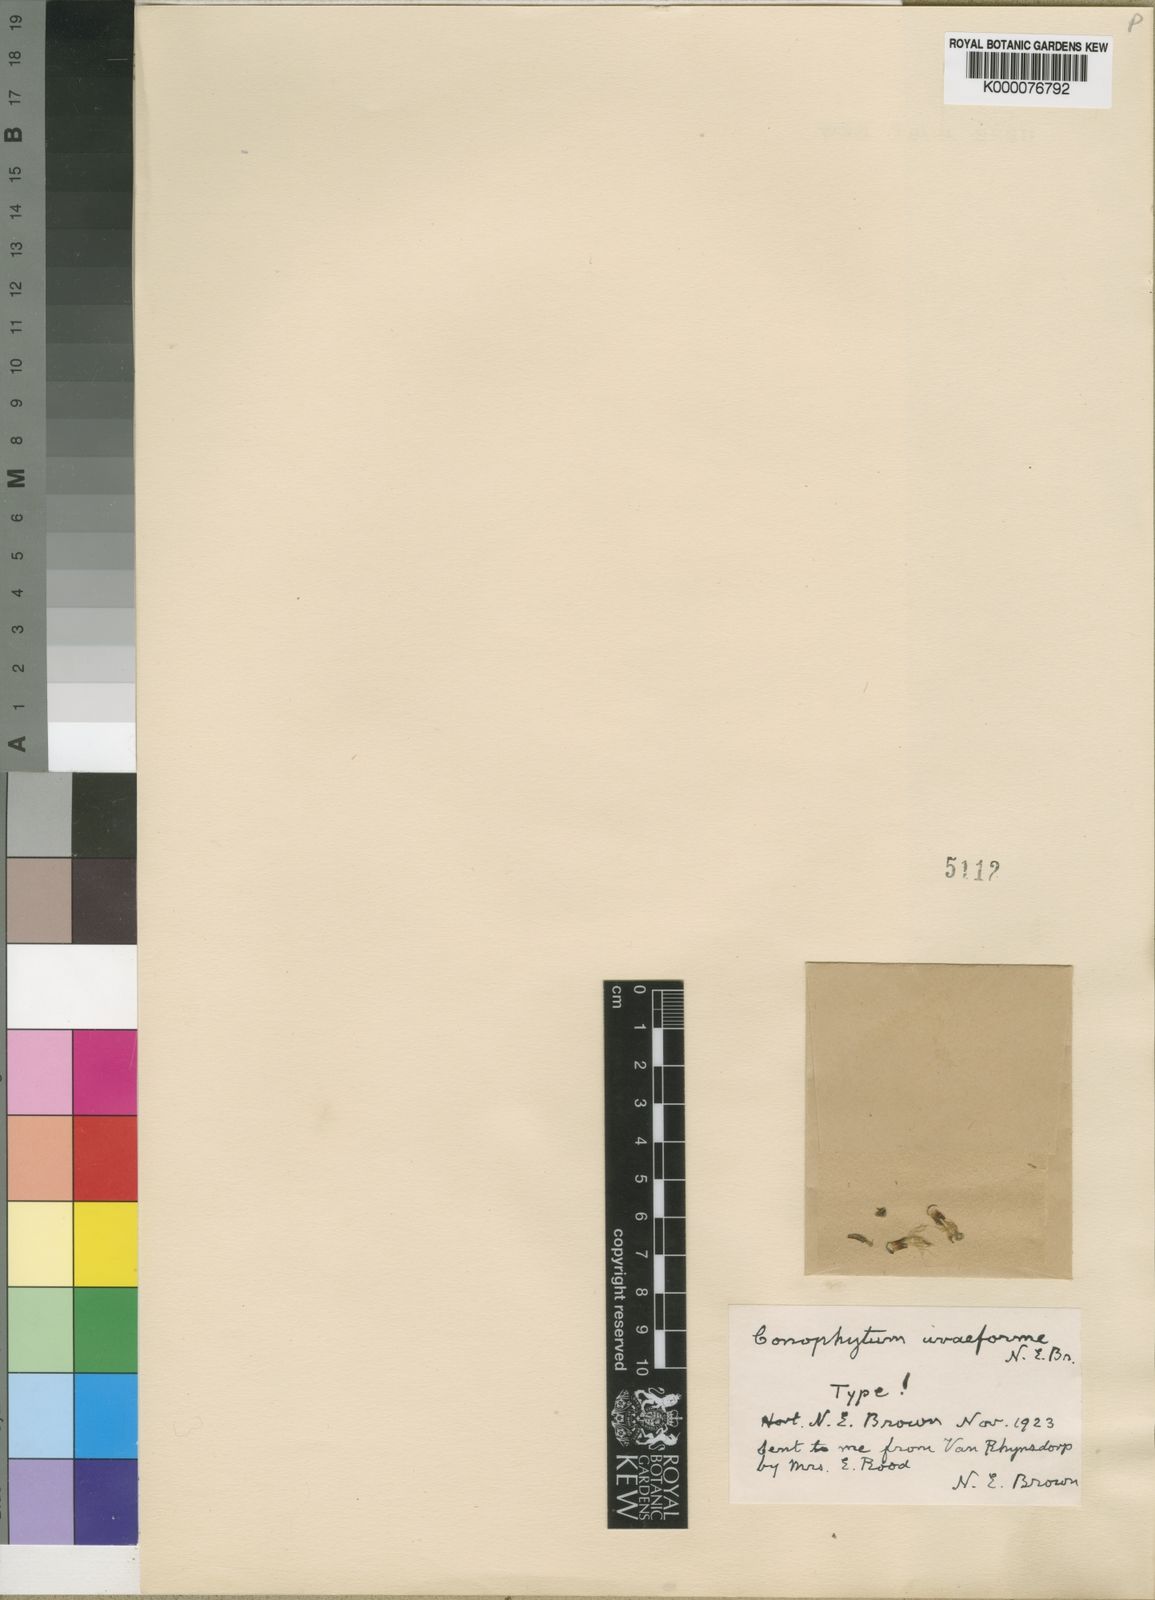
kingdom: Plantae
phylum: Tracheophyta
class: Magnoliopsida
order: Caryophyllales
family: Aizoaceae
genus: Conophytum
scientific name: Conophytum uviforme
